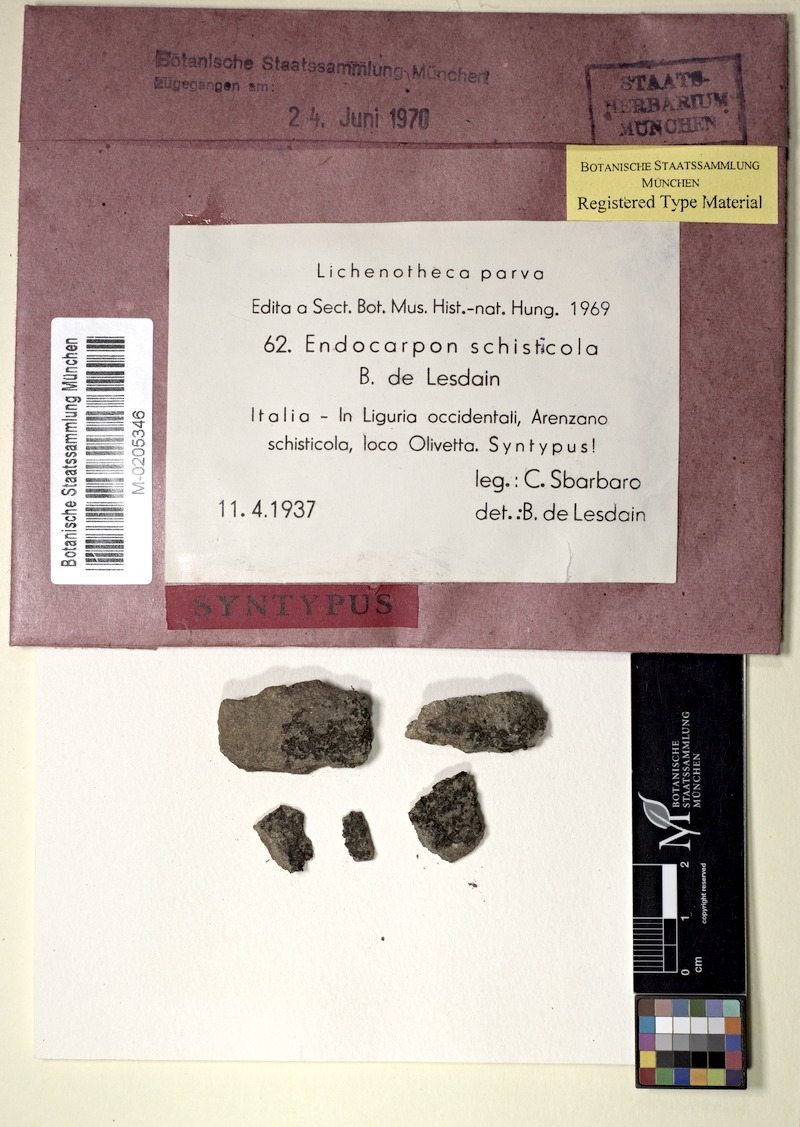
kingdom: Fungi
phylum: Ascomycota
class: Eurotiomycetes
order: Verrucariales
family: Verrucariaceae
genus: Endocarpon
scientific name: Endocarpon schisticola
